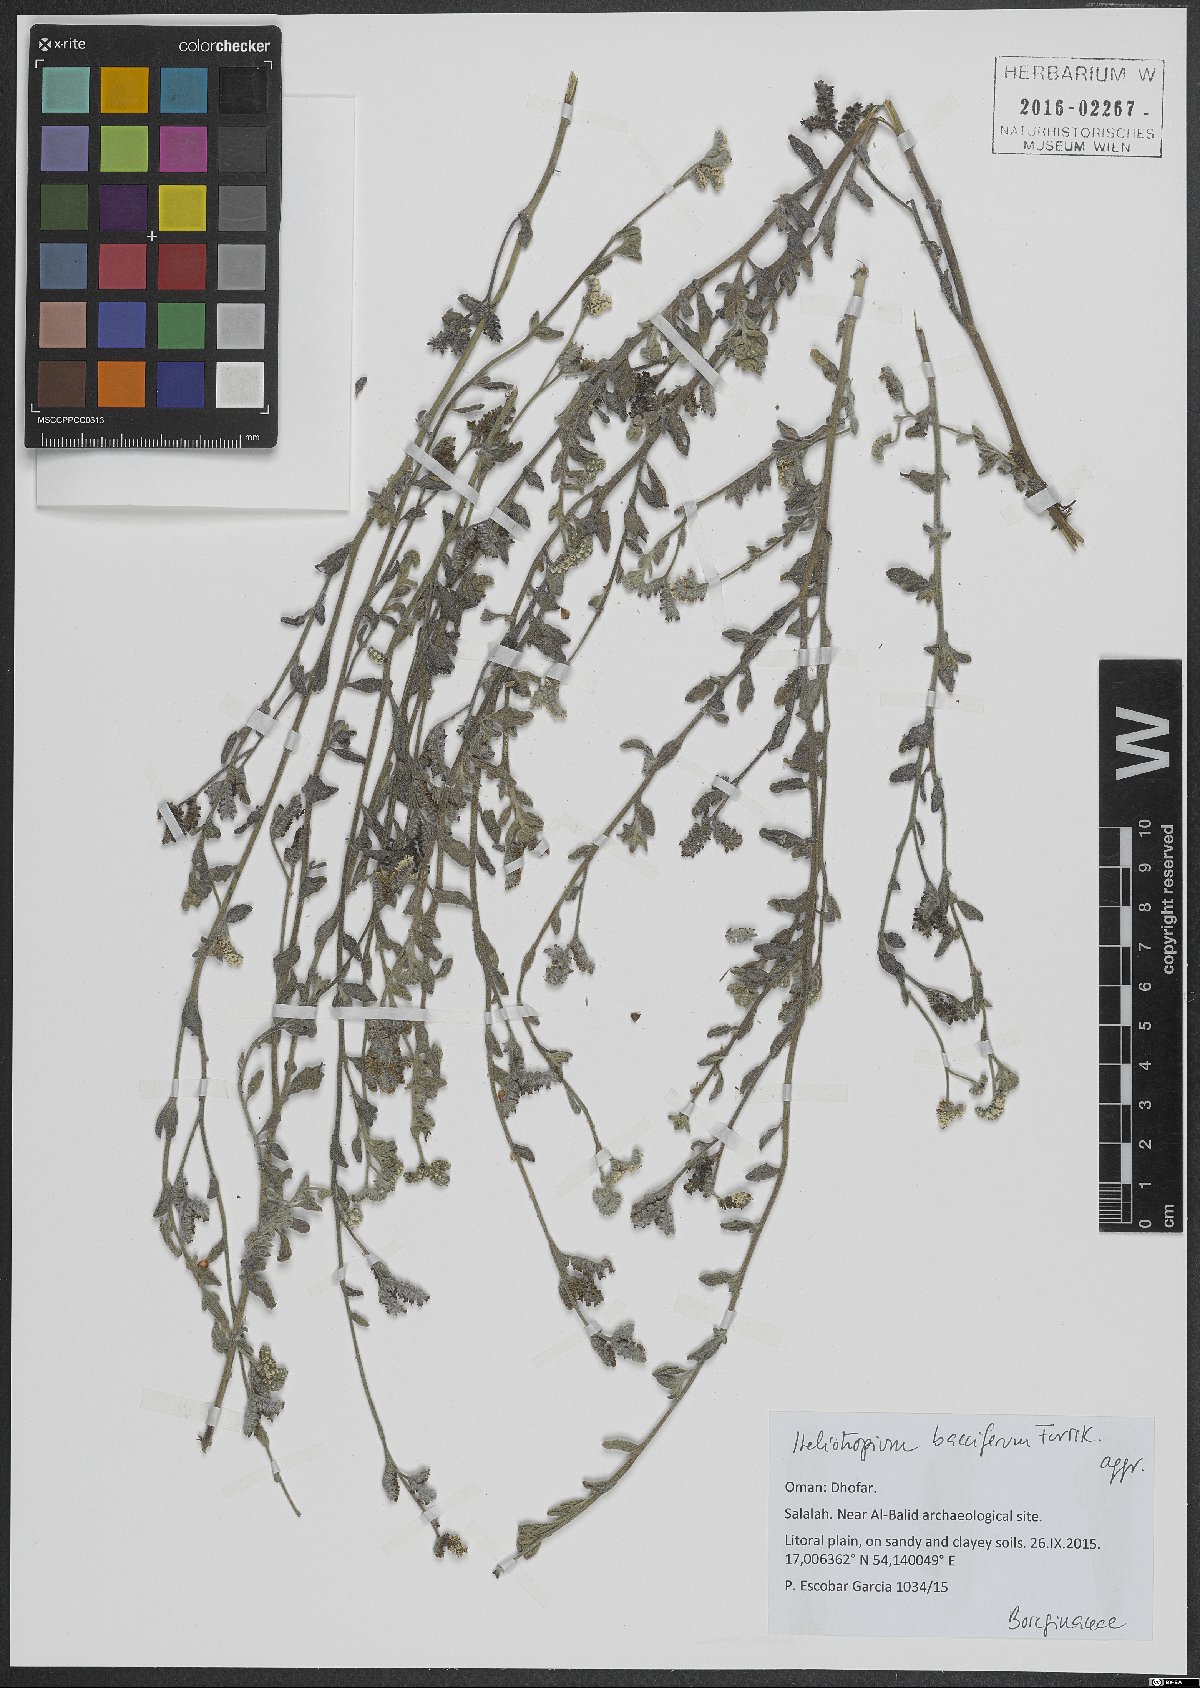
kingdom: Plantae
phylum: Tracheophyta
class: Magnoliopsida
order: Boraginales
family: Heliotropiaceae
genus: Heliotropium
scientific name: Heliotropium bacciferum
